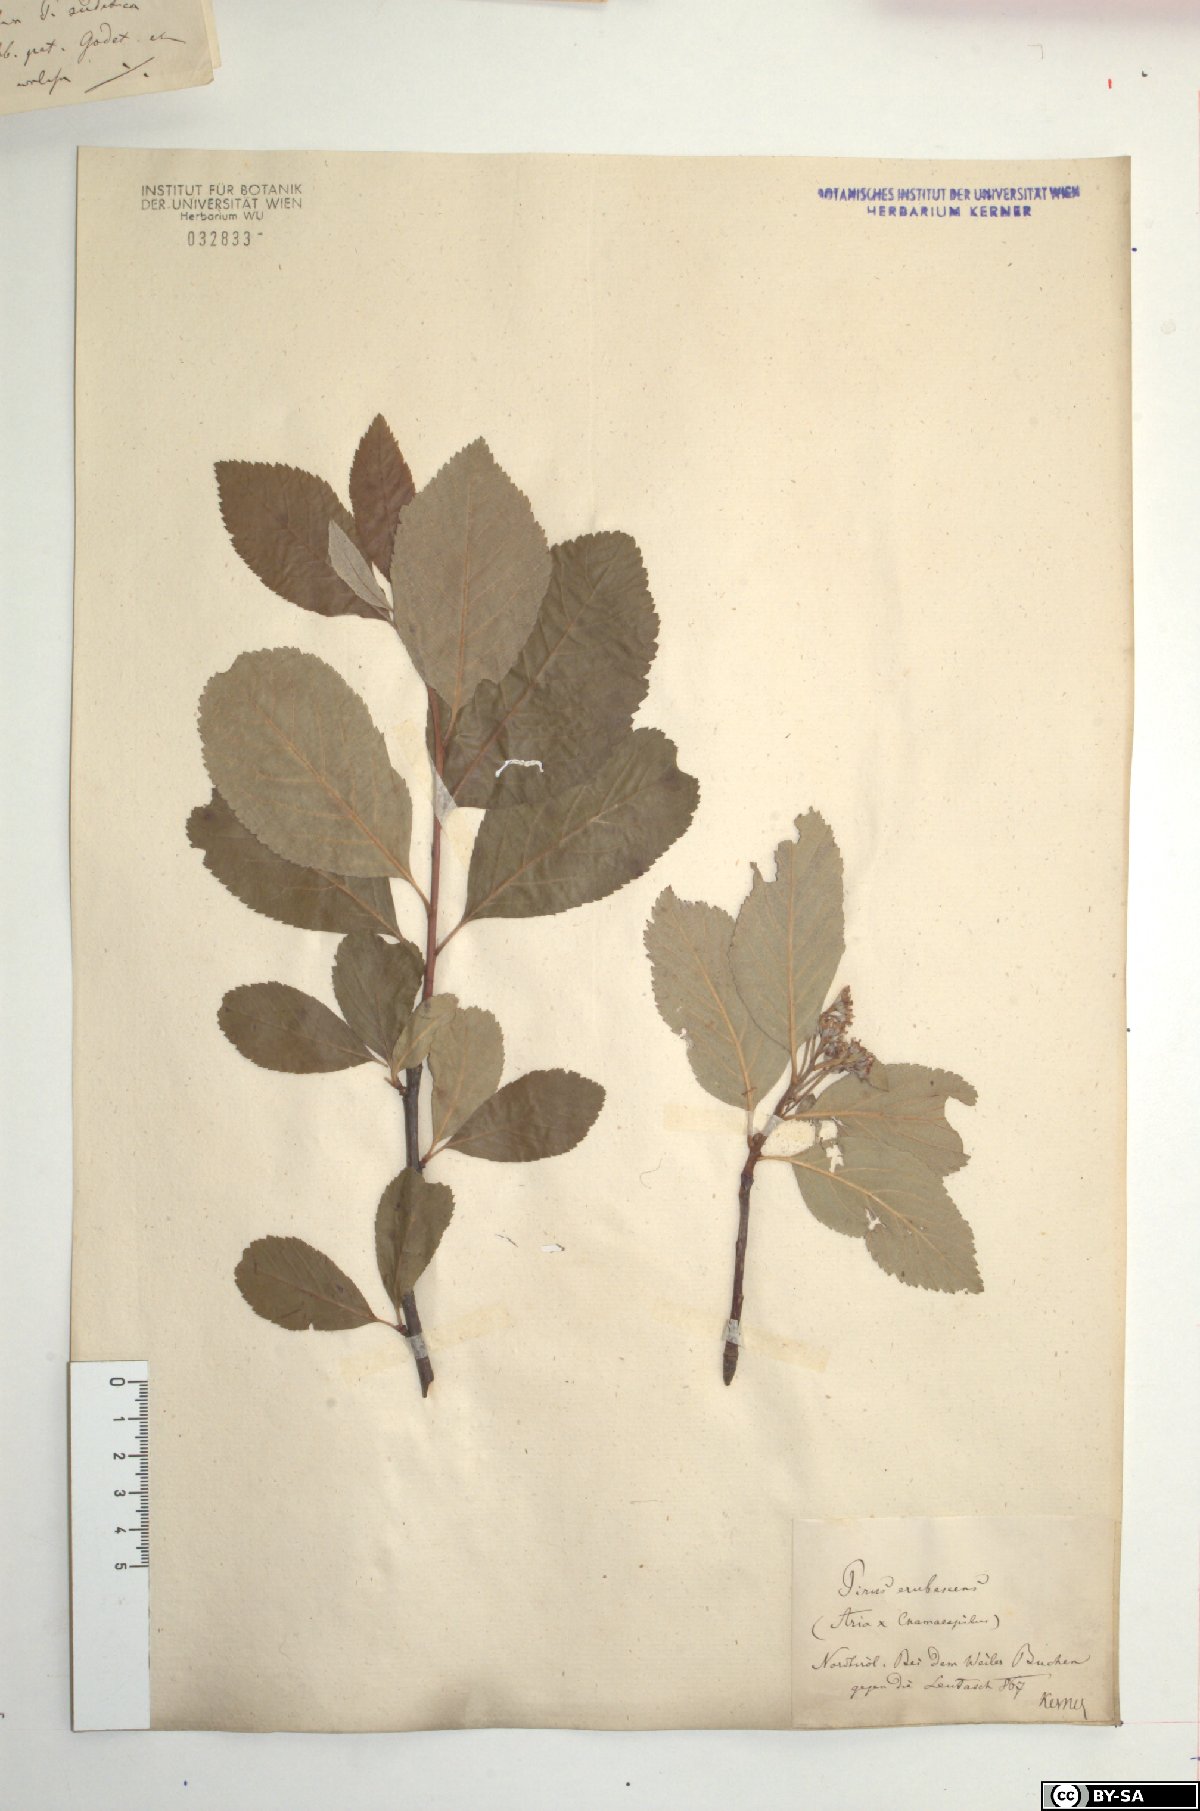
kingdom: Plantae
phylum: Tracheophyta
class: Magnoliopsida
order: Rosales
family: Rosaceae
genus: Majovskya
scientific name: Majovskya sudetica
